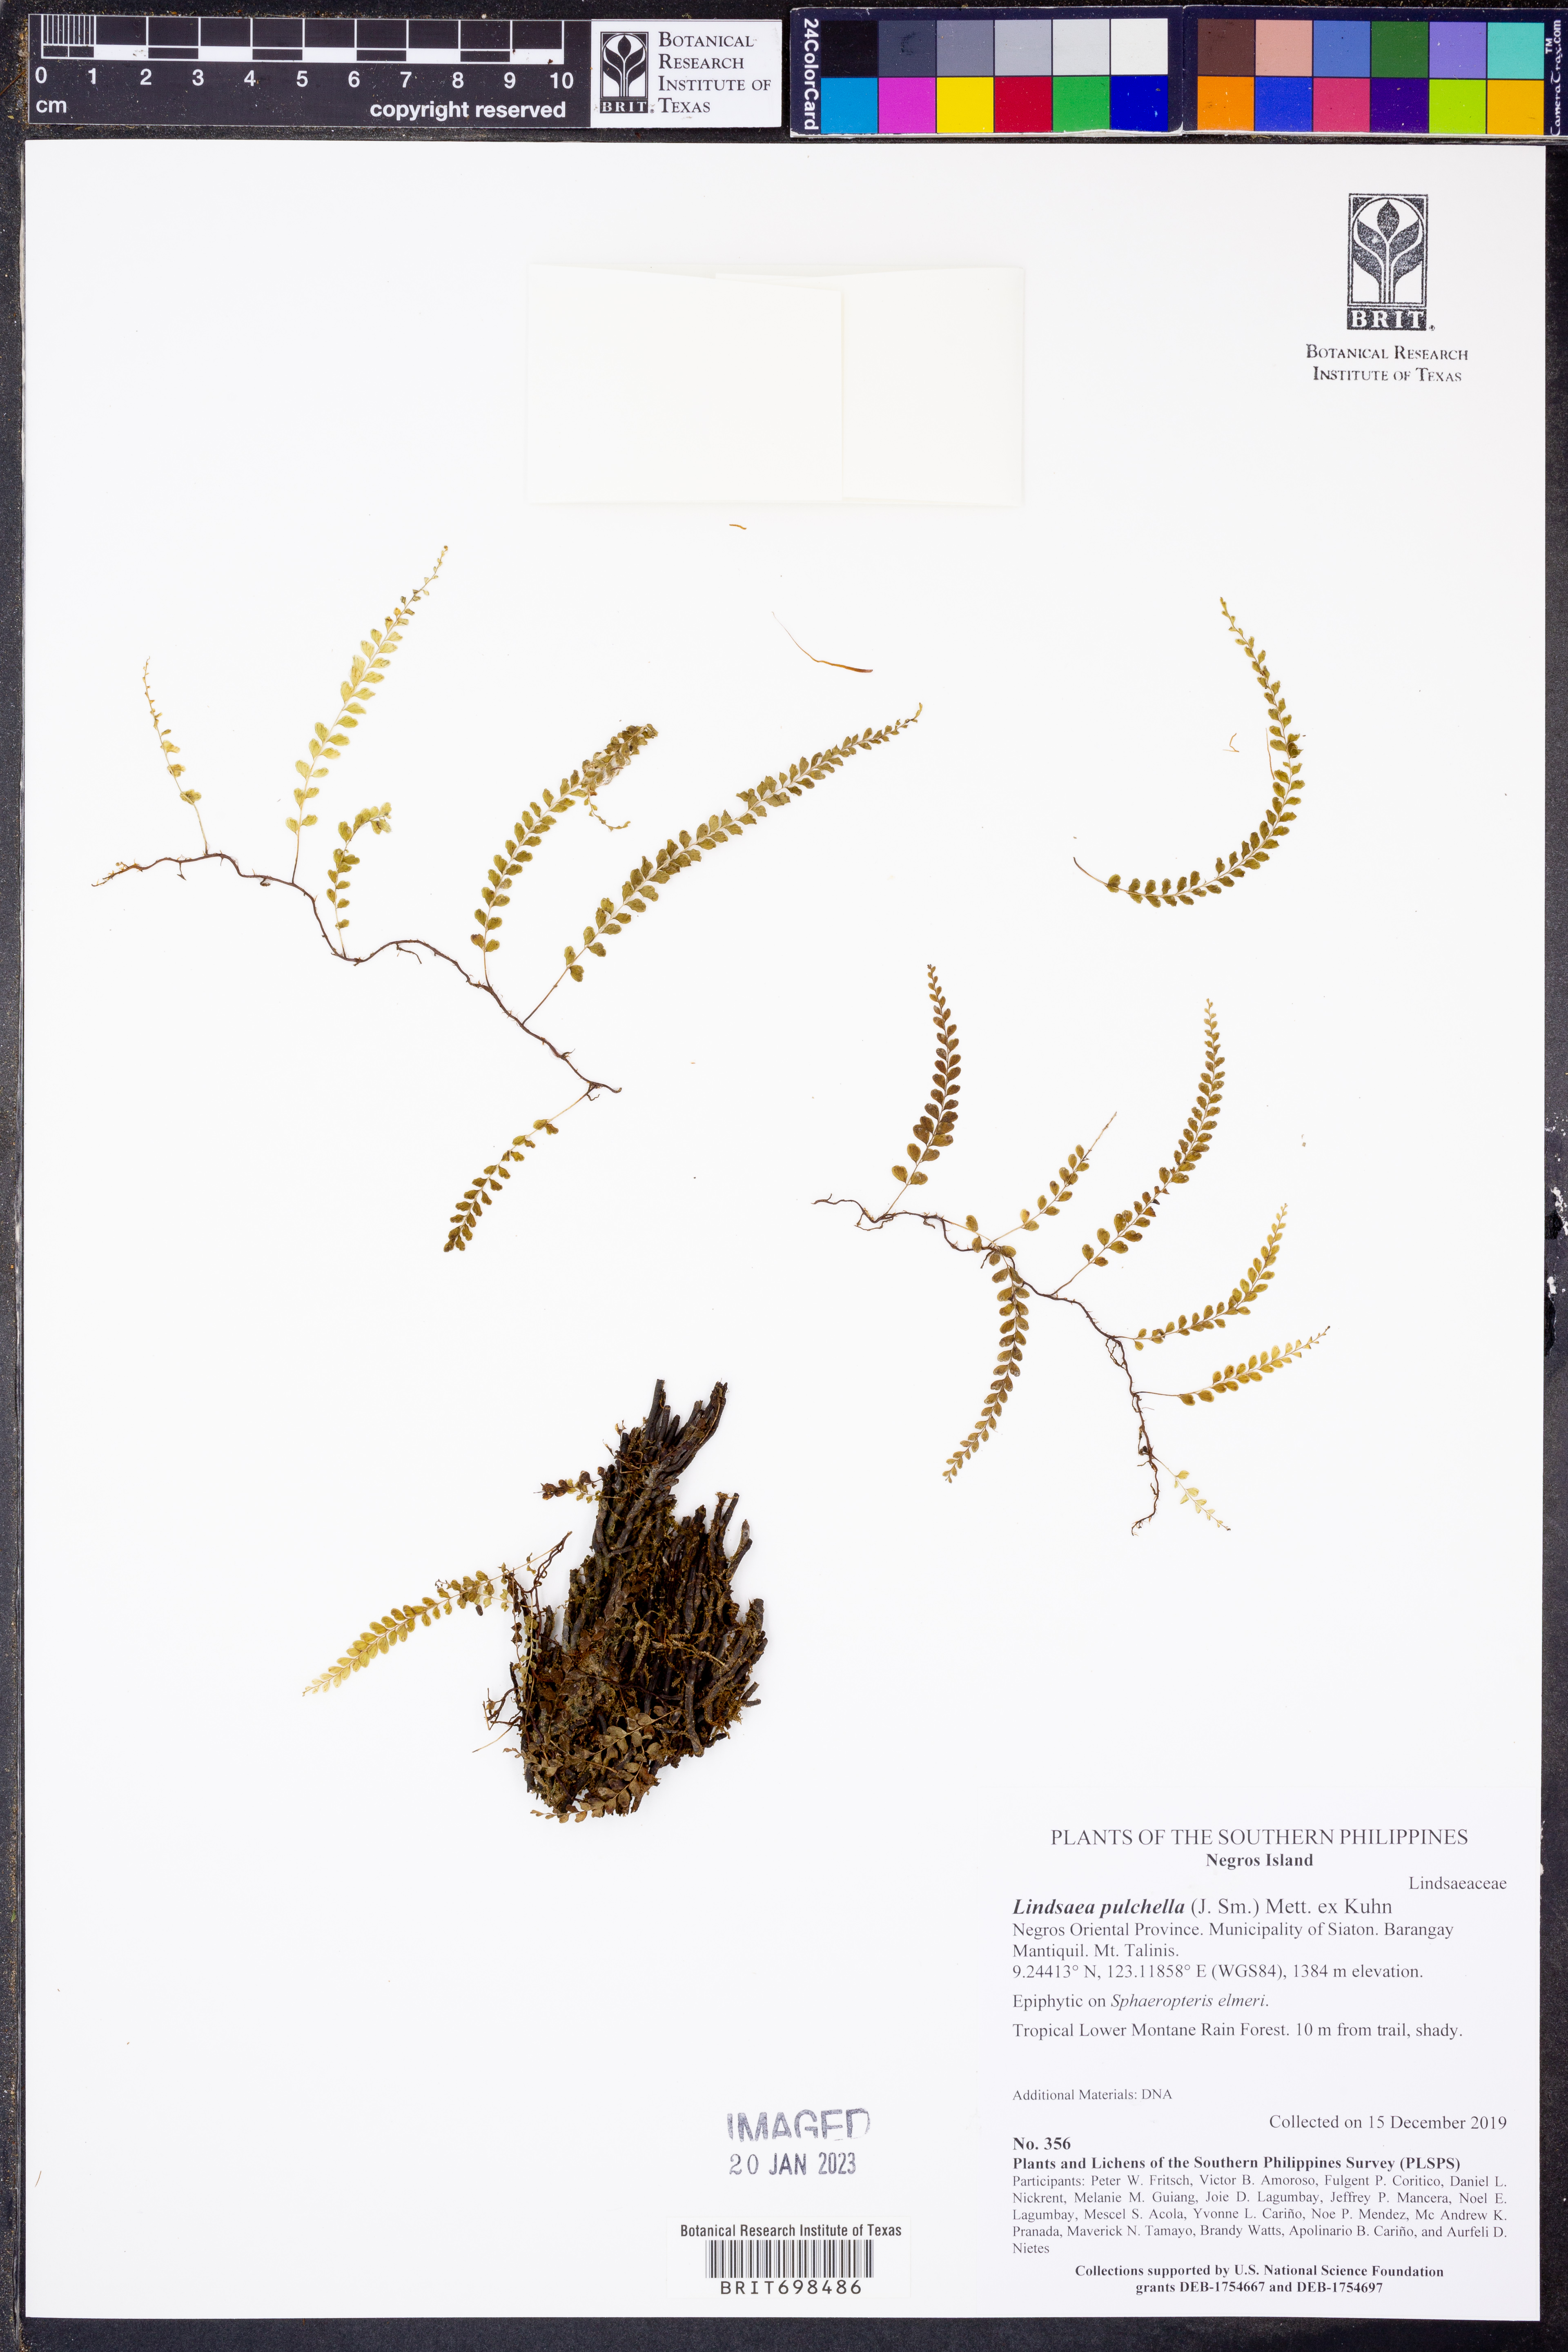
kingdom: Plantae
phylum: Tracheophyta
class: Polypodiopsida
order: Polypodiales
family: Lindsaeaceae
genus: Lindsaea
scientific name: Lindsaea pulchella
